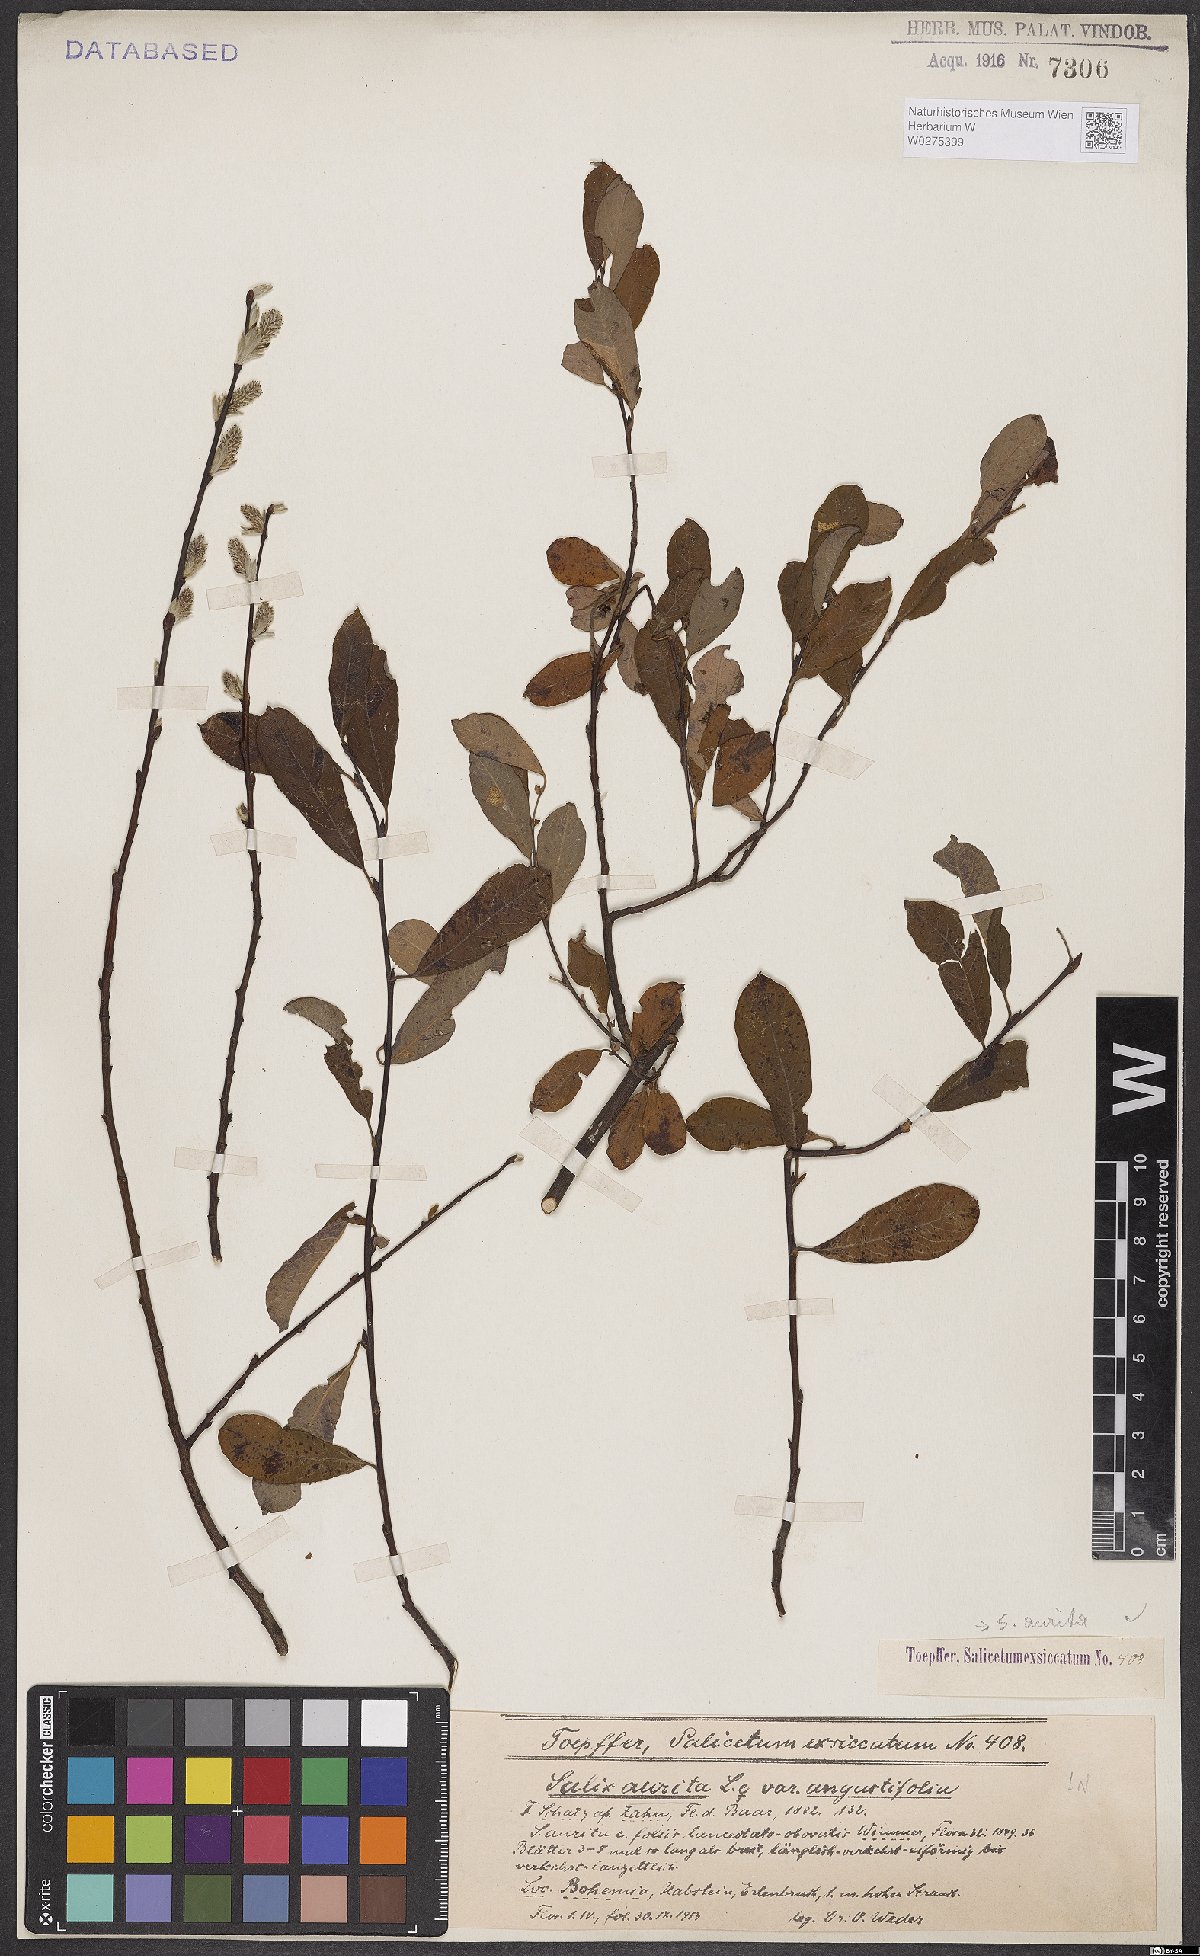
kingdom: Plantae
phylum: Tracheophyta
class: Magnoliopsida
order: Malpighiales
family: Salicaceae
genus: Salix
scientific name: Salix aurita
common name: Eared willow
